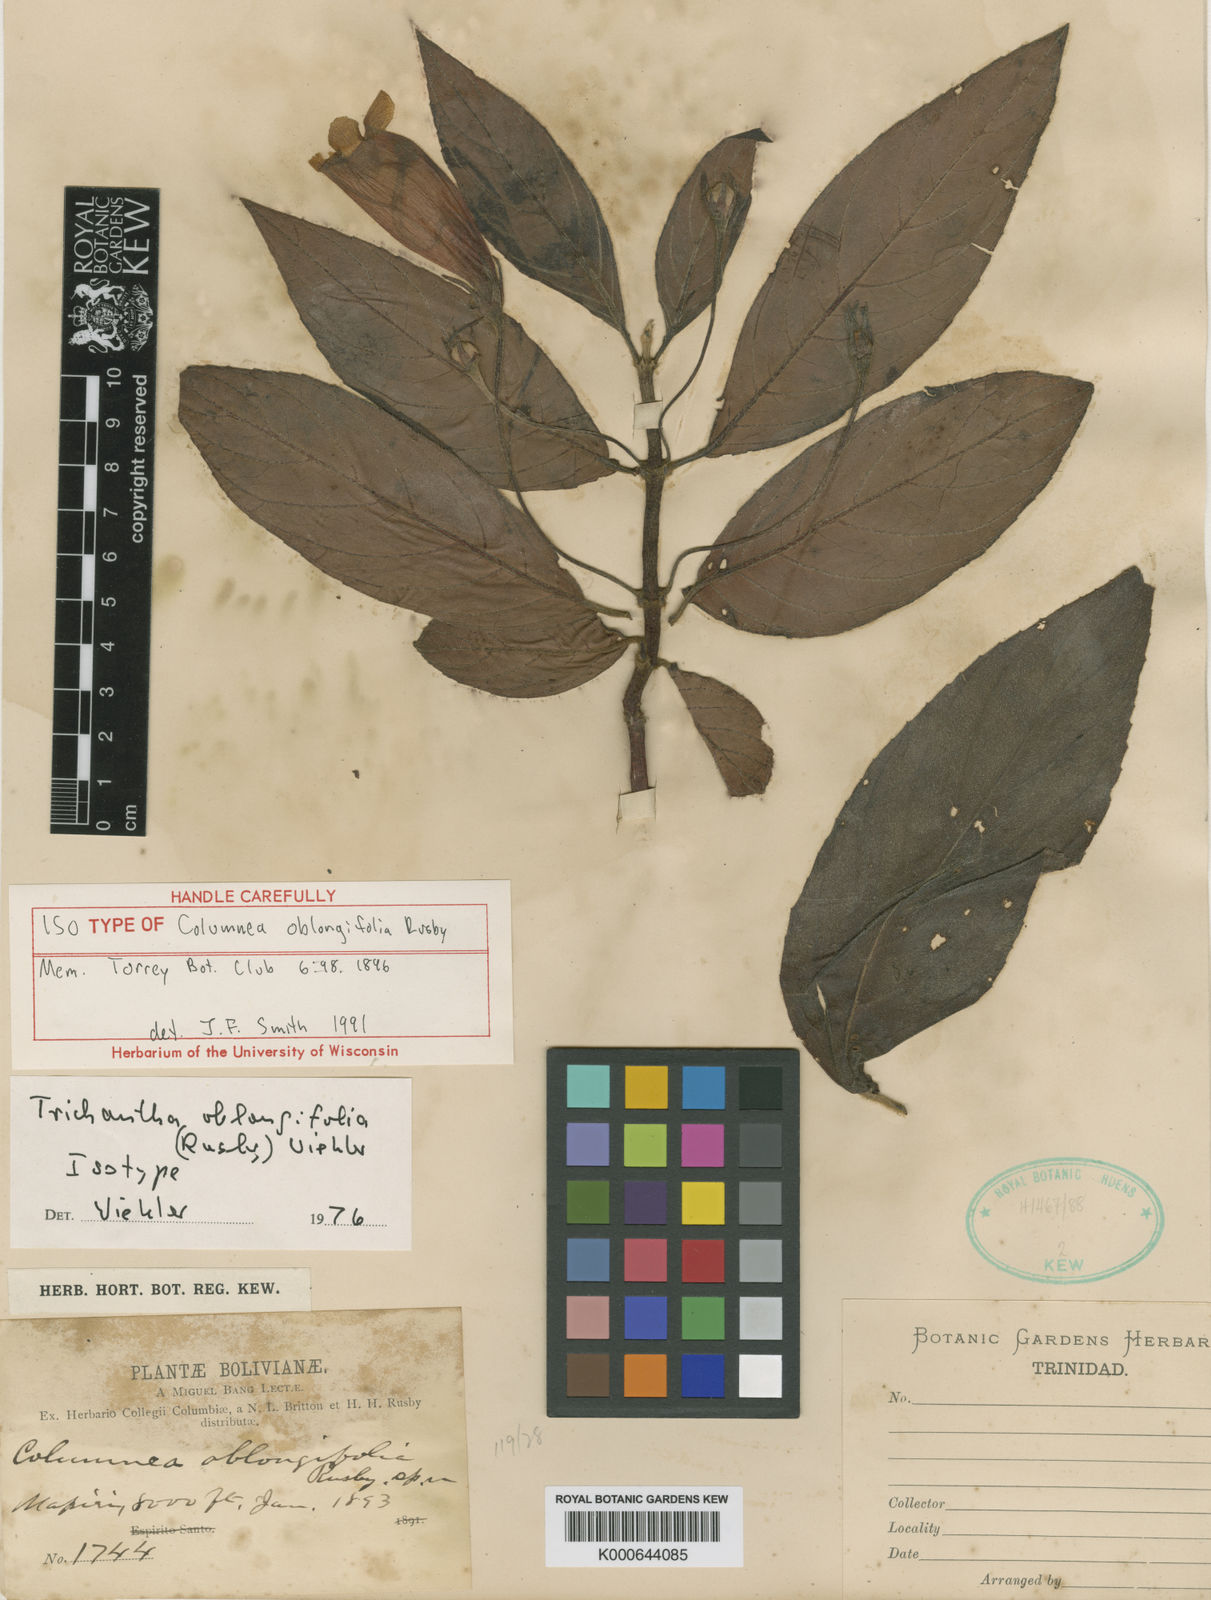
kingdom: Plantae
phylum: Tracheophyta
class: Magnoliopsida
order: Lamiales
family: Gesneriaceae
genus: Columnea
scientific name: Columnea oblongifolia
